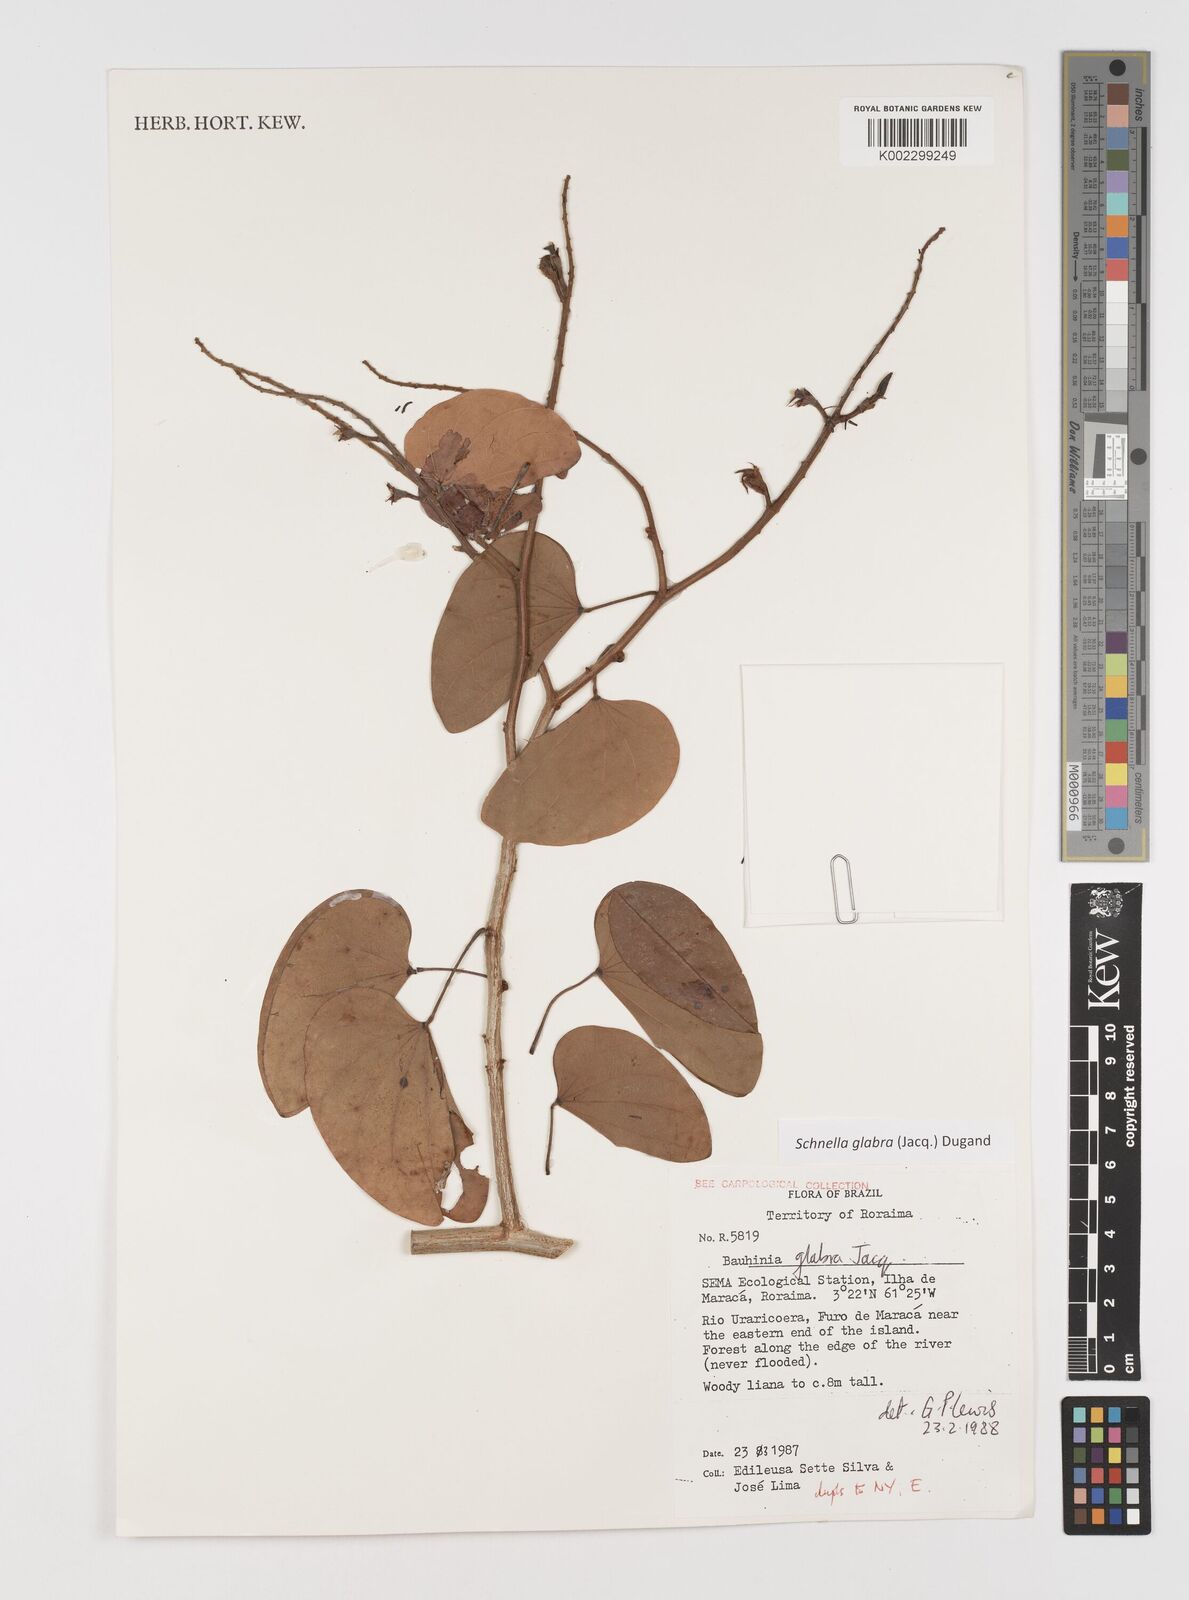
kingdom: Plantae
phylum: Tracheophyta
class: Magnoliopsida
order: Fabales
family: Fabaceae
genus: Schnella
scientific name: Schnella glabra
